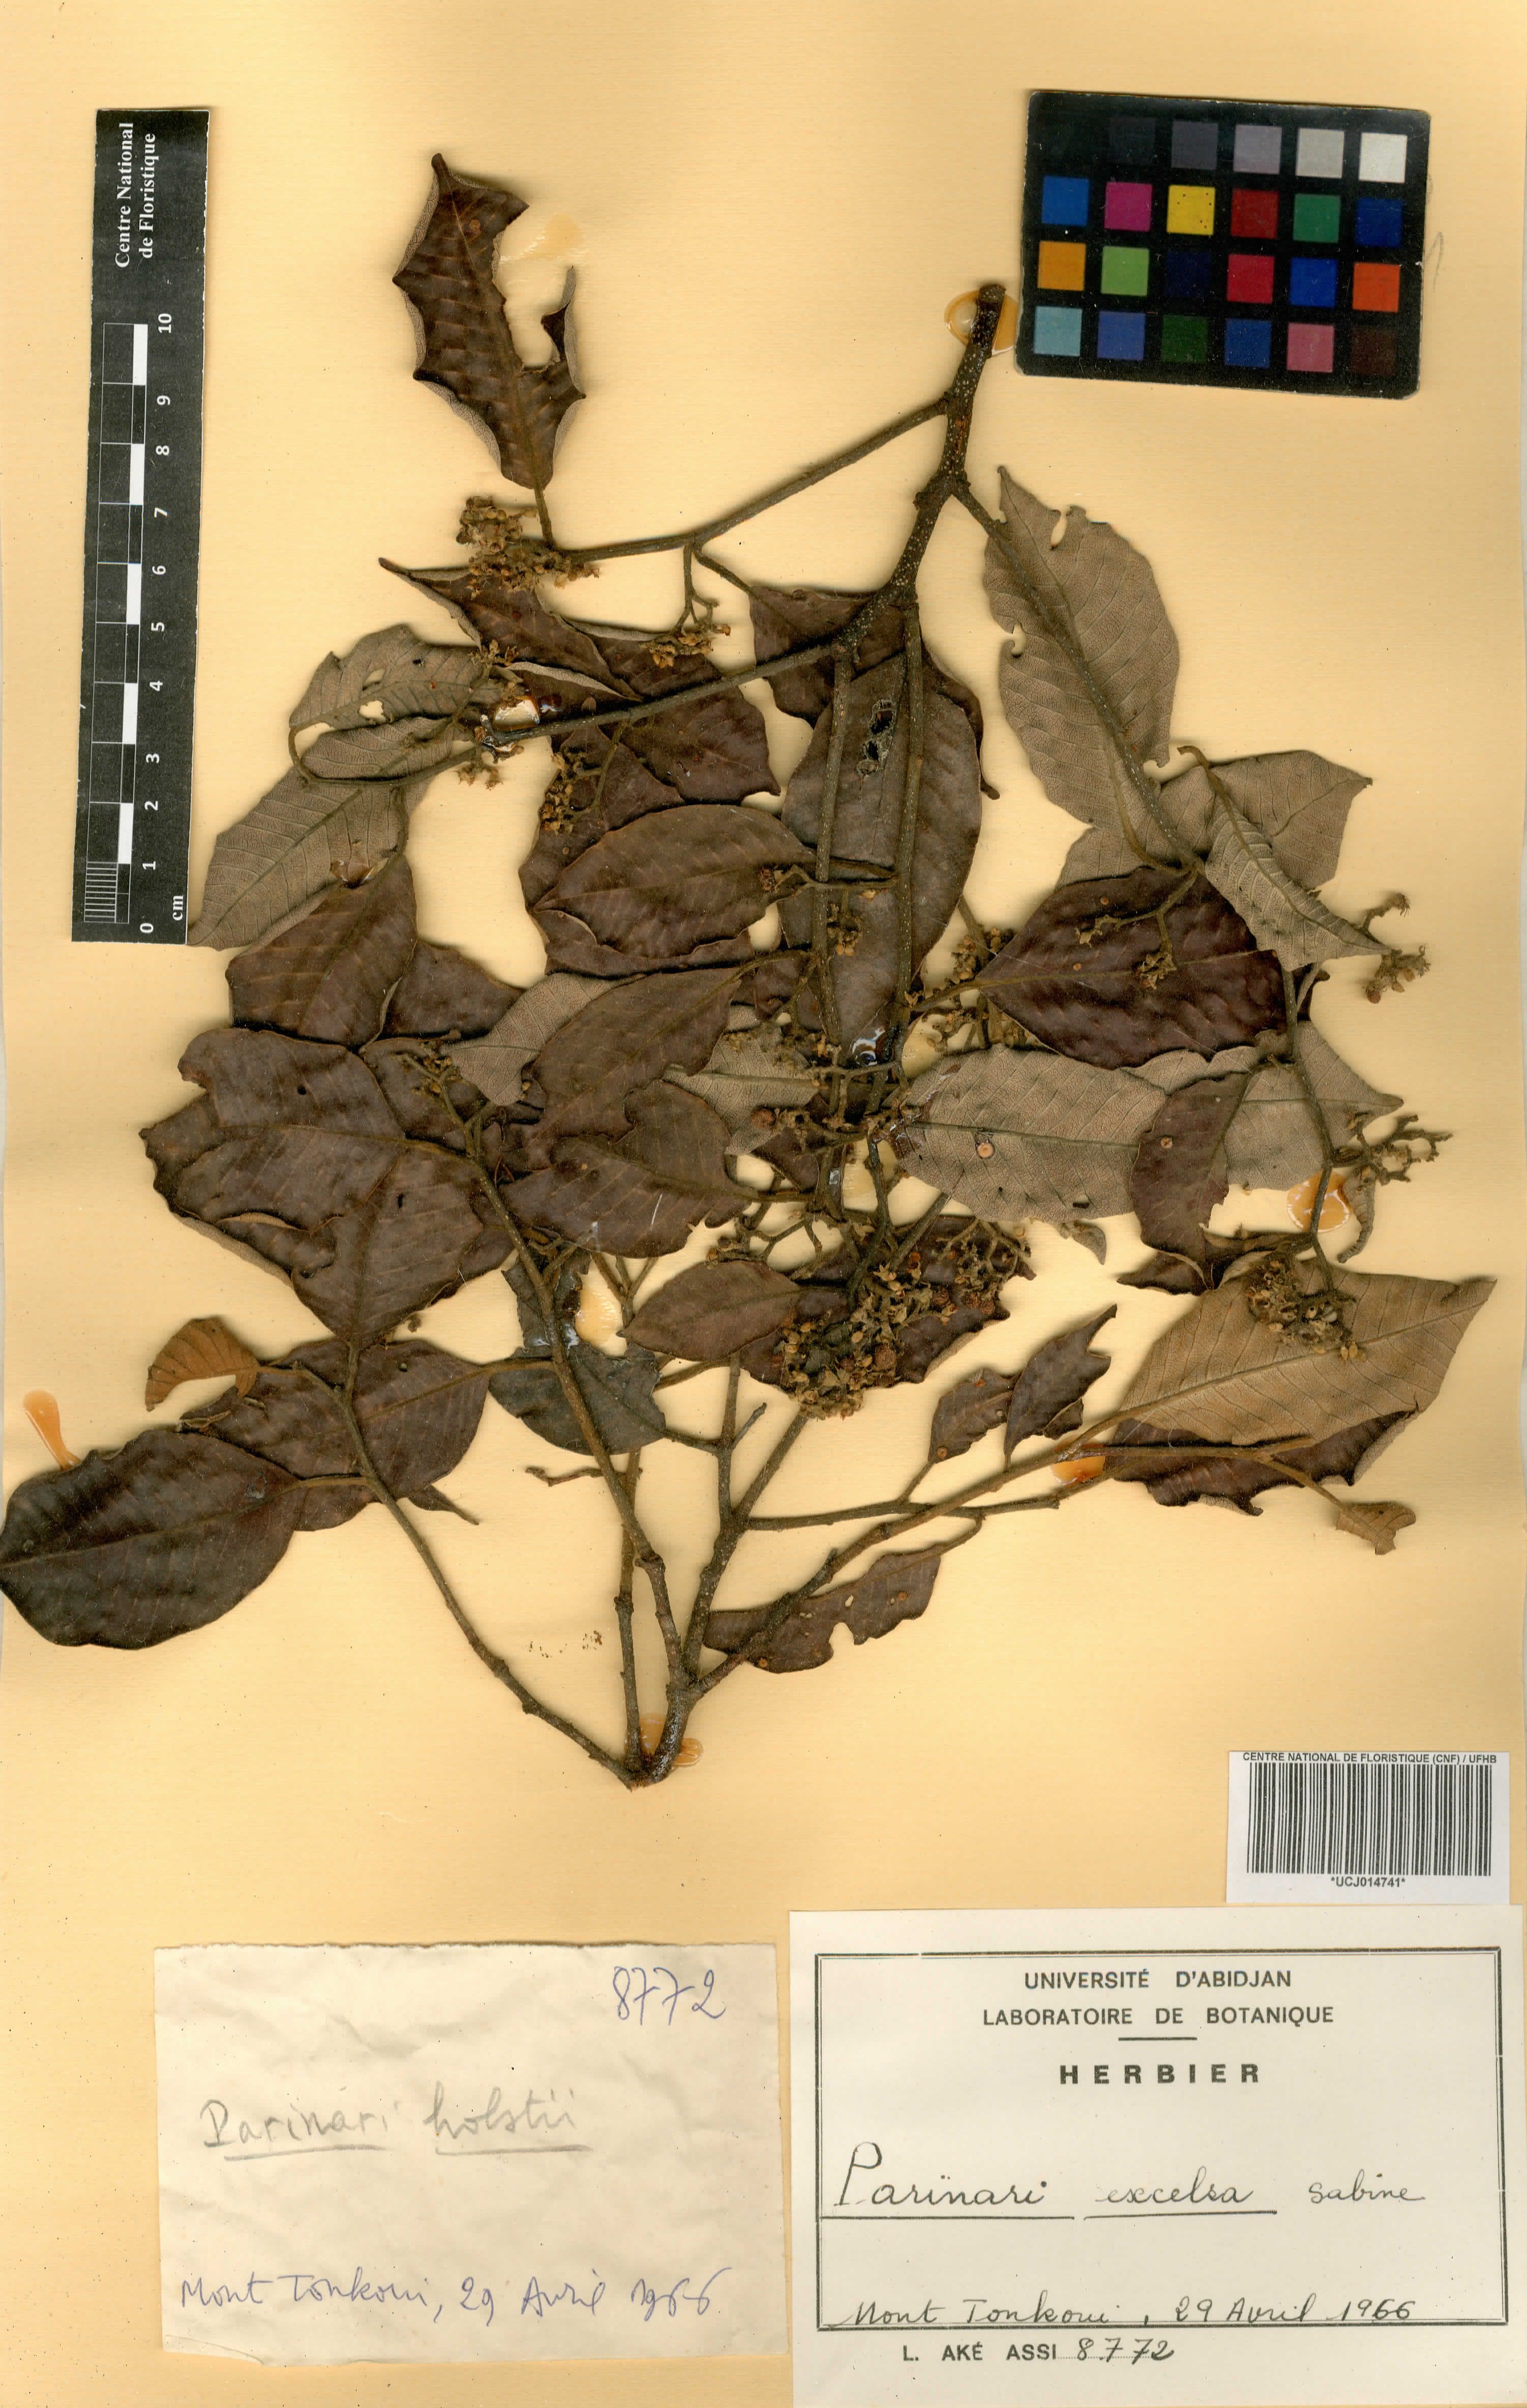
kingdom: Plantae
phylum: Tracheophyta
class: Magnoliopsida
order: Malpighiales
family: Chrysobalanaceae
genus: Parinari
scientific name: Parinari excelsa
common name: Guinea-plum
